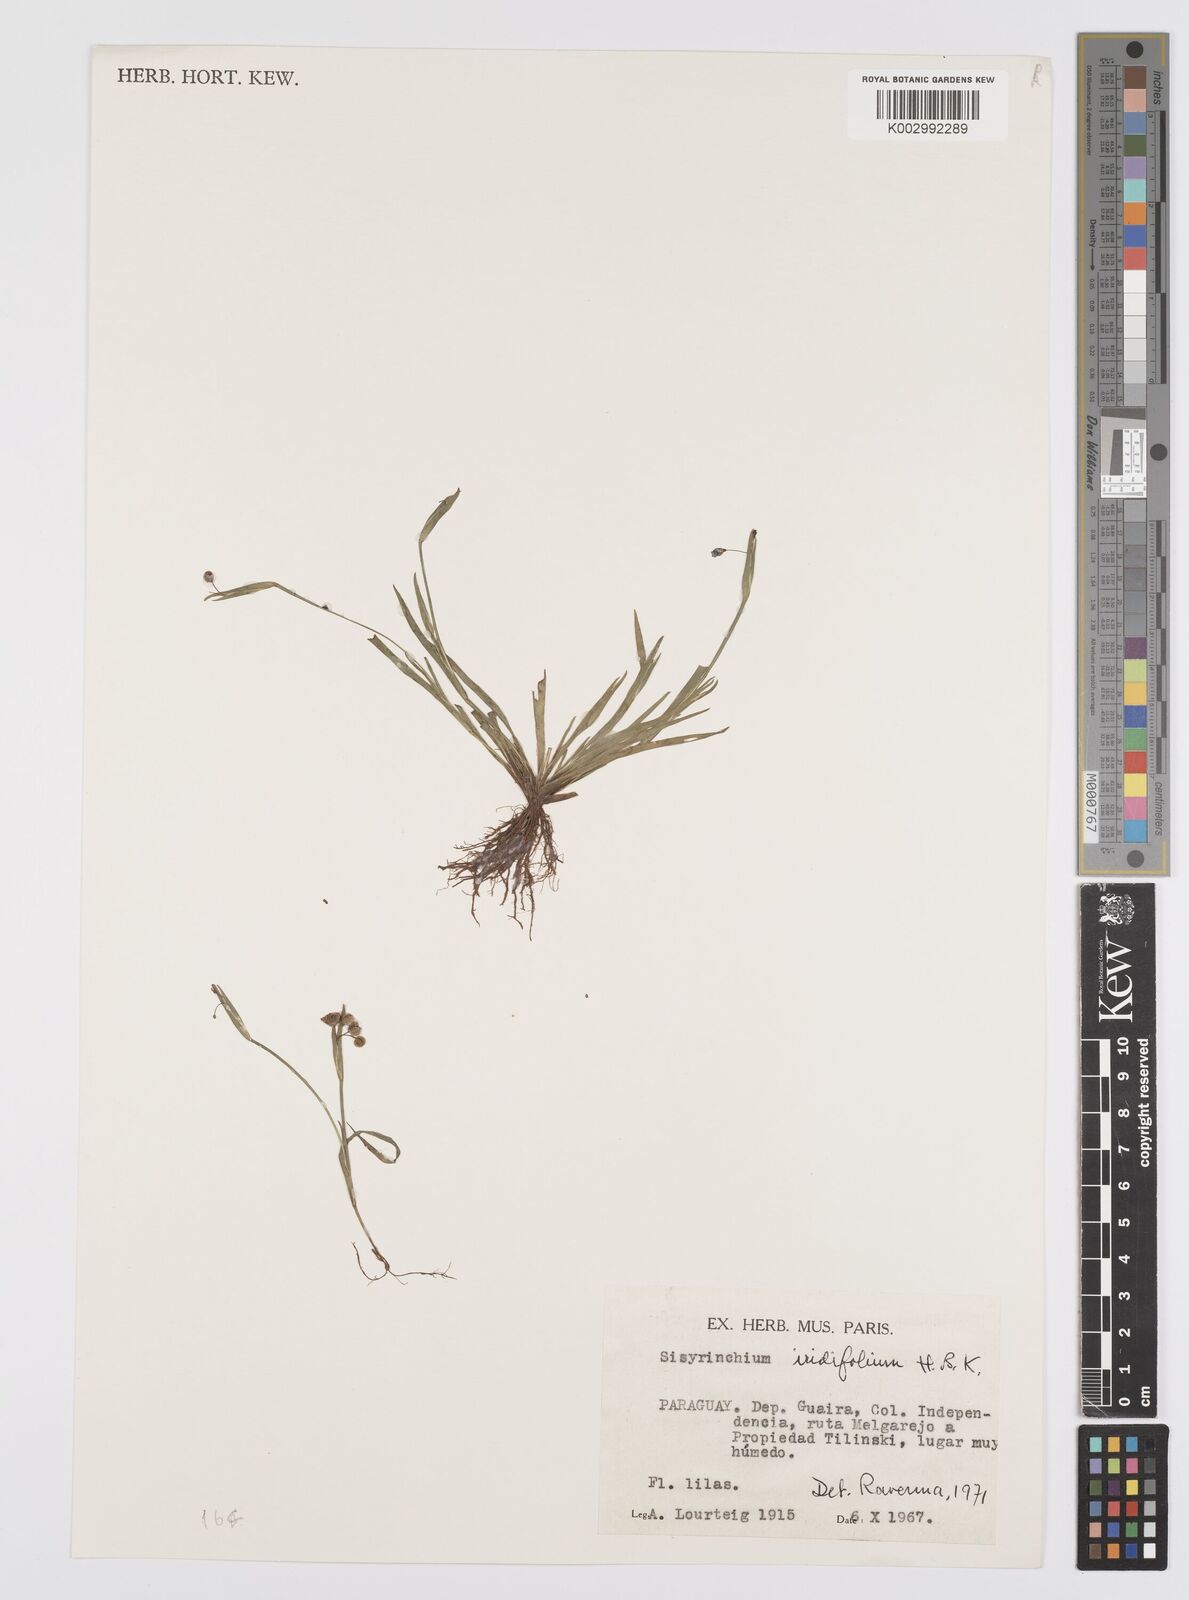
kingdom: Plantae
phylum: Tracheophyta
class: Liliopsida
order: Asparagales
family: Iridaceae
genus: Sisyrinchium
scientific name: Sisyrinchium micranthum
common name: Bermuda pigroot
